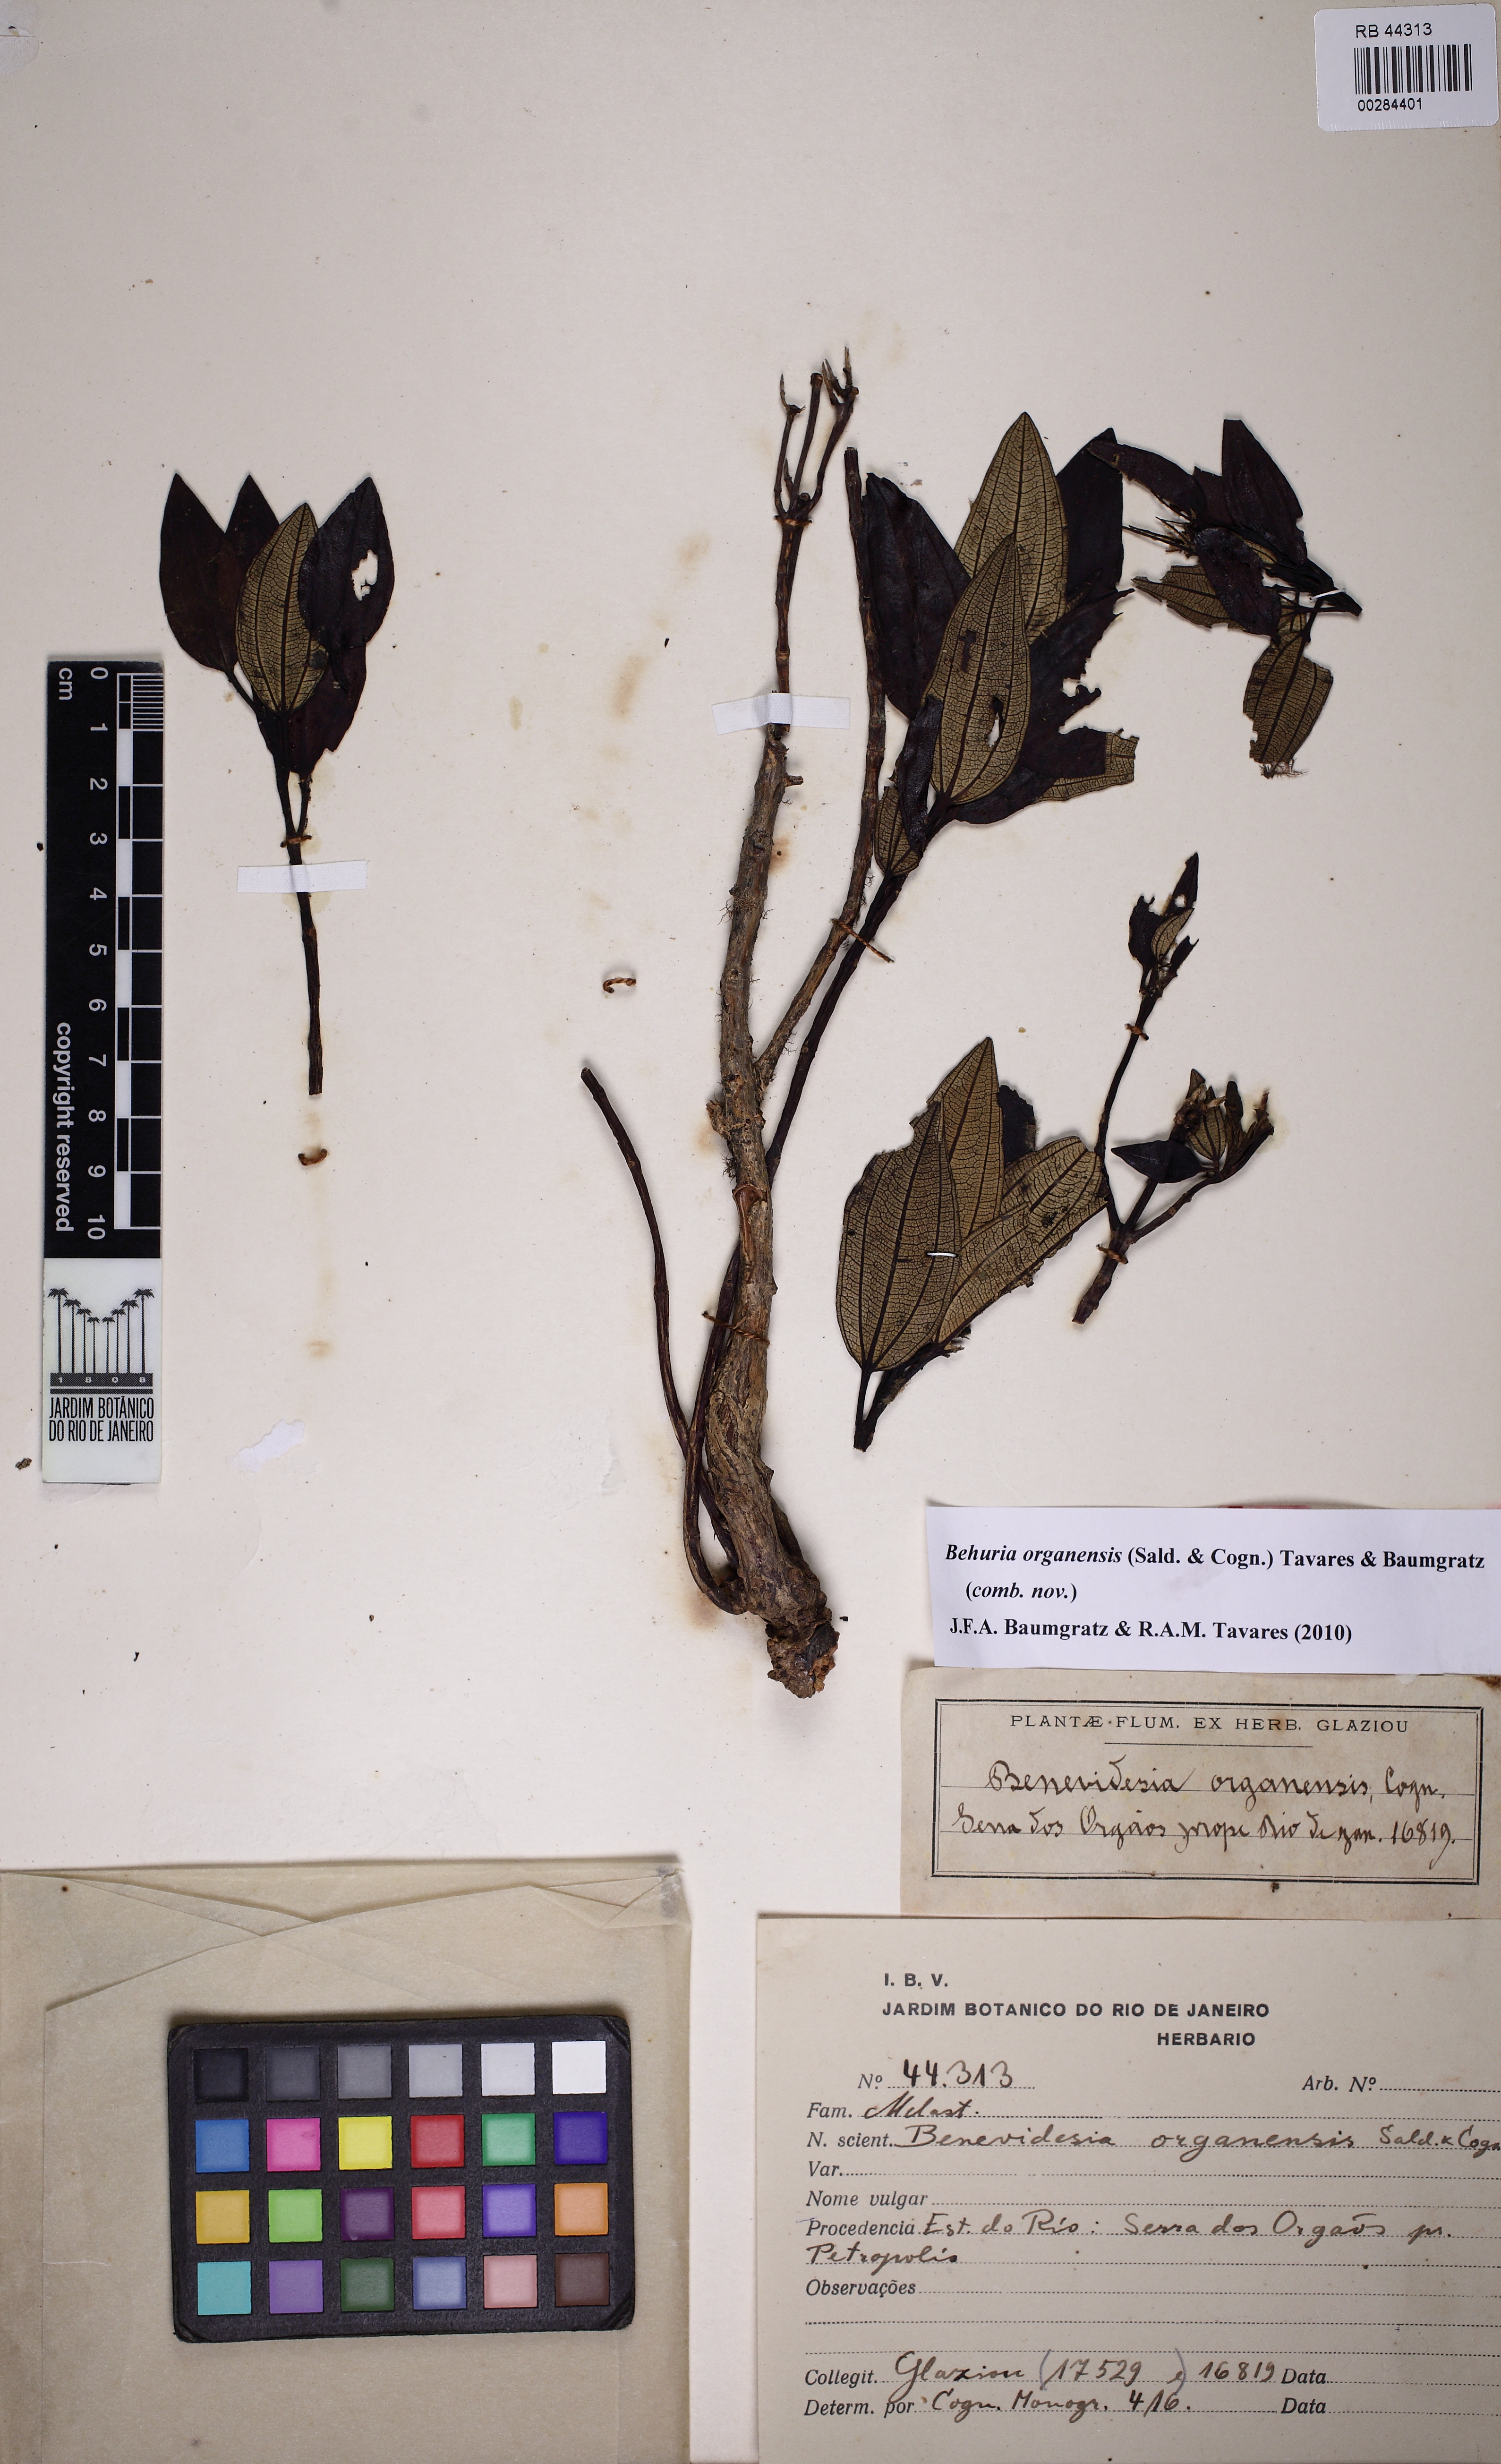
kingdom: Plantae
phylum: Tracheophyta
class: Magnoliopsida
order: Myrtales
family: Melastomataceae
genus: Huberia
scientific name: Huberia organensis
